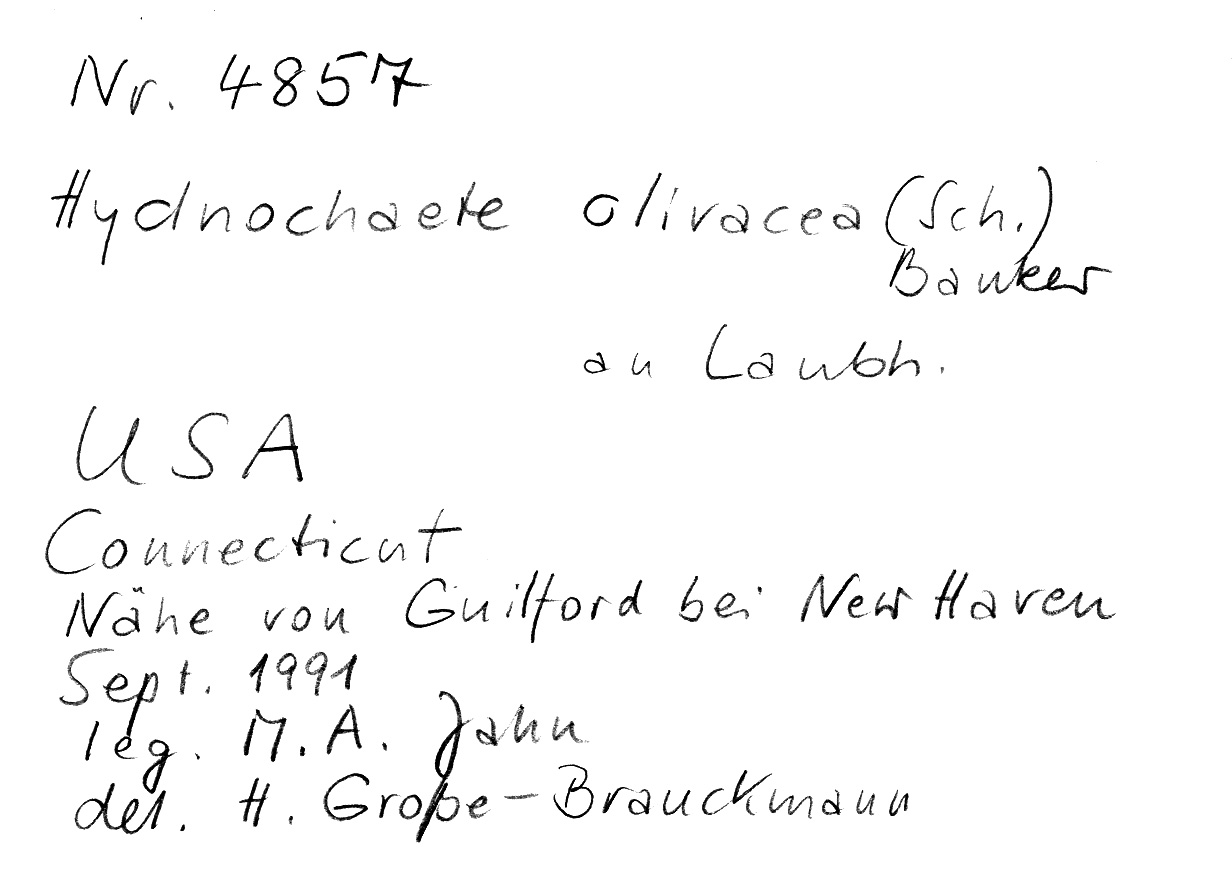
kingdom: Fungi
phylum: Basidiomycota
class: Agaricomycetes
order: Hymenochaetales
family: Hymenochaetaceae
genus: Hydnoporia
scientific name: Hydnoporia olivacea
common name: Brown-toothed crust fungus
